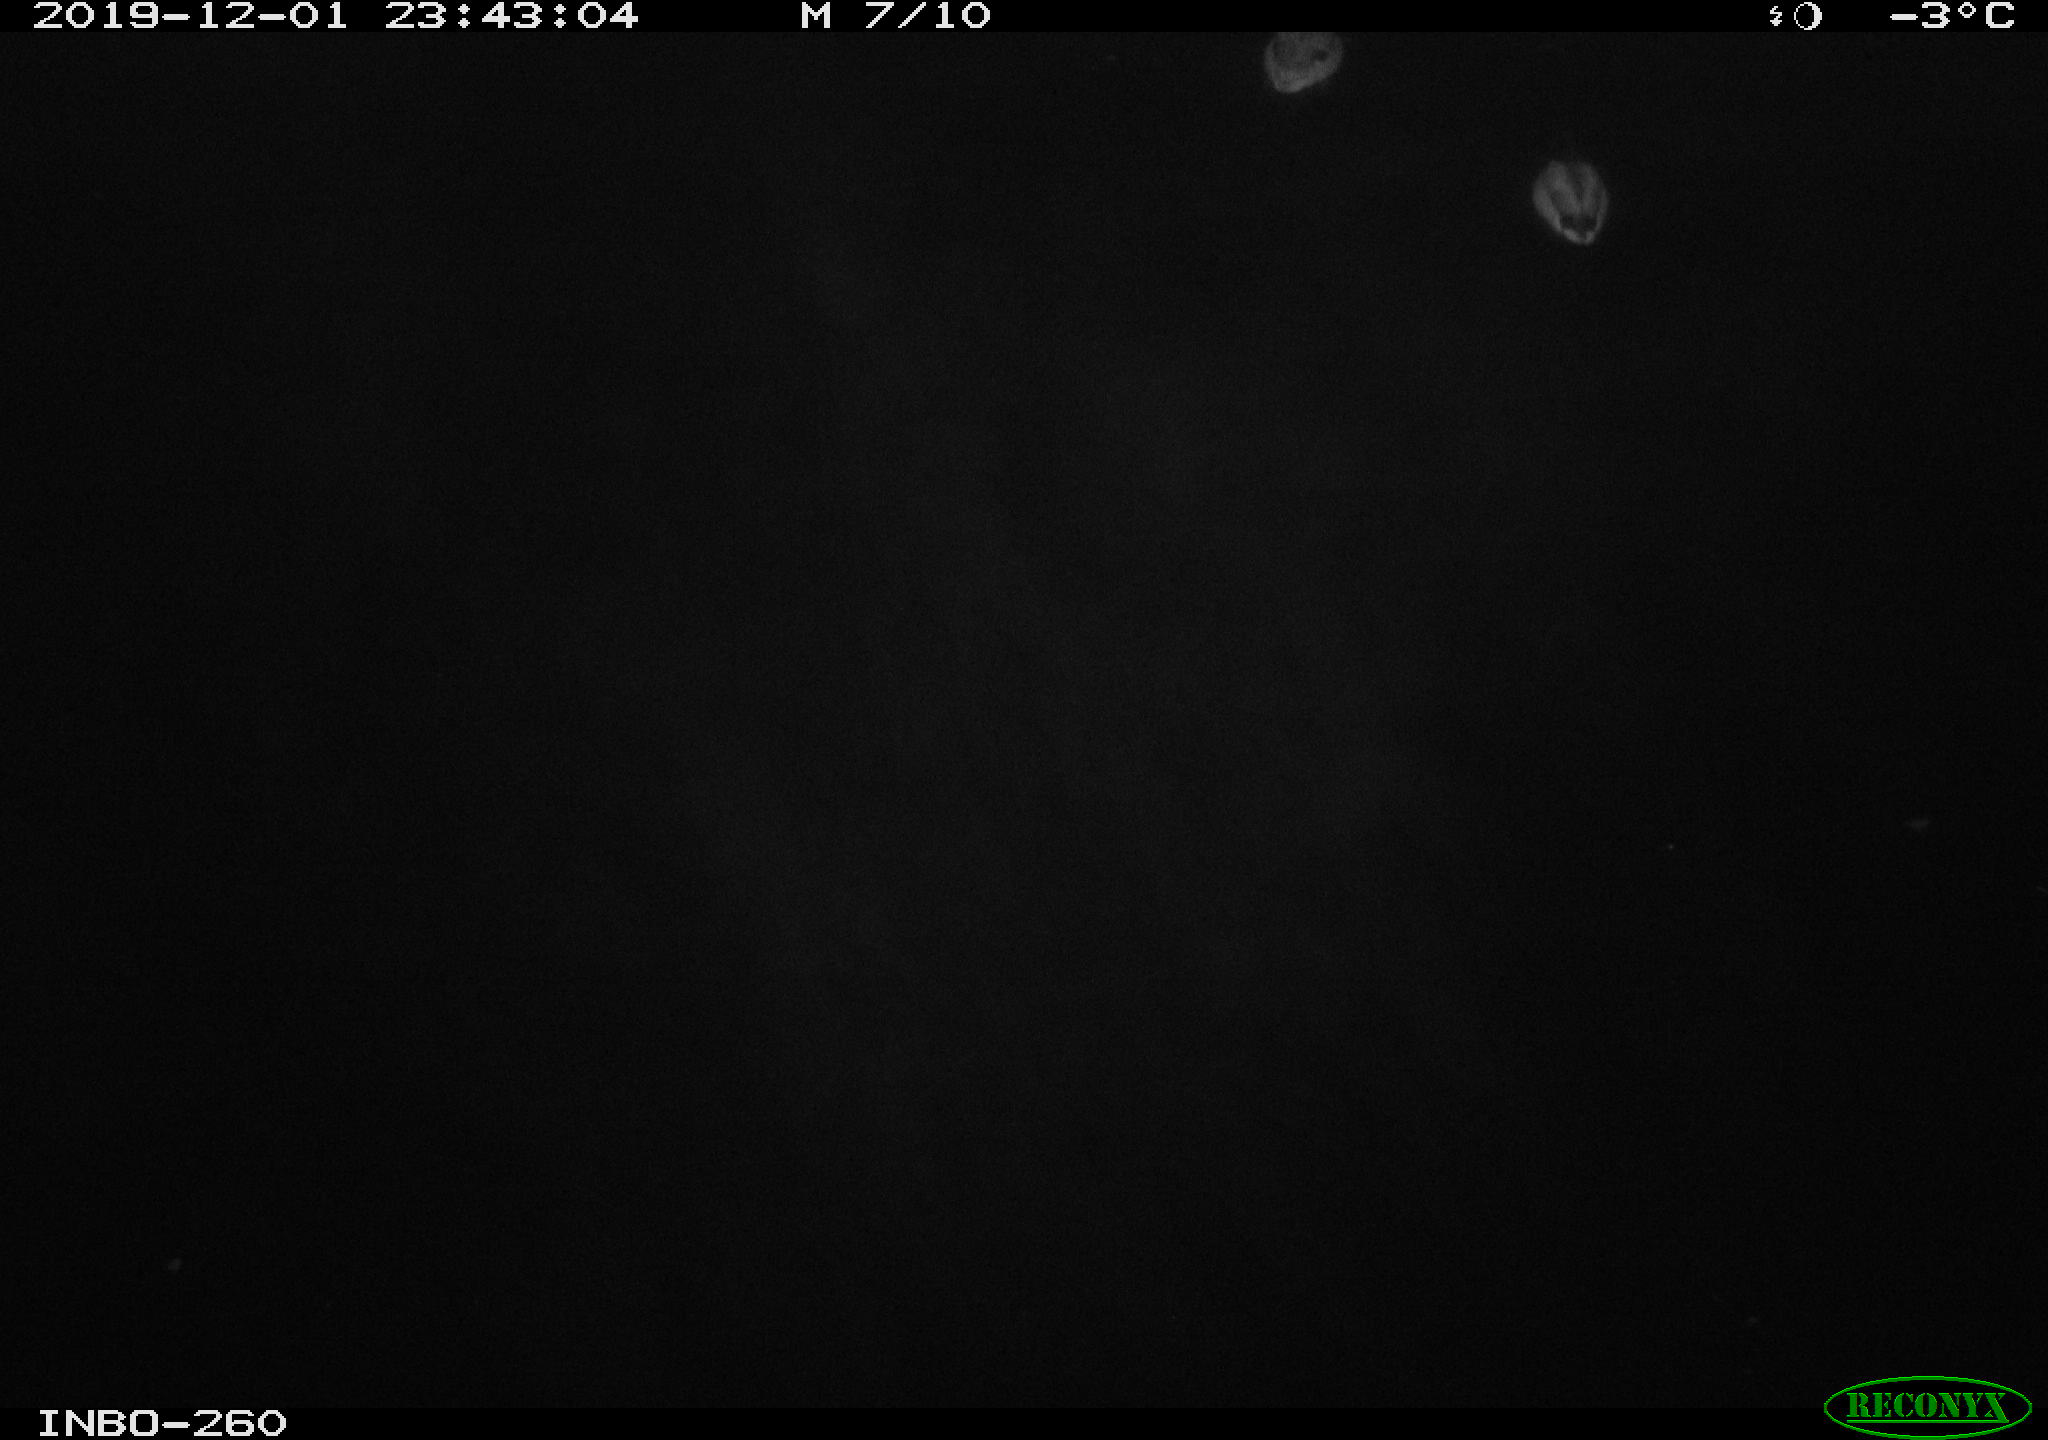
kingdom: Animalia
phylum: Chordata
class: Aves
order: Anseriformes
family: Anatidae
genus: Anas
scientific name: Anas platyrhynchos
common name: Mallard
